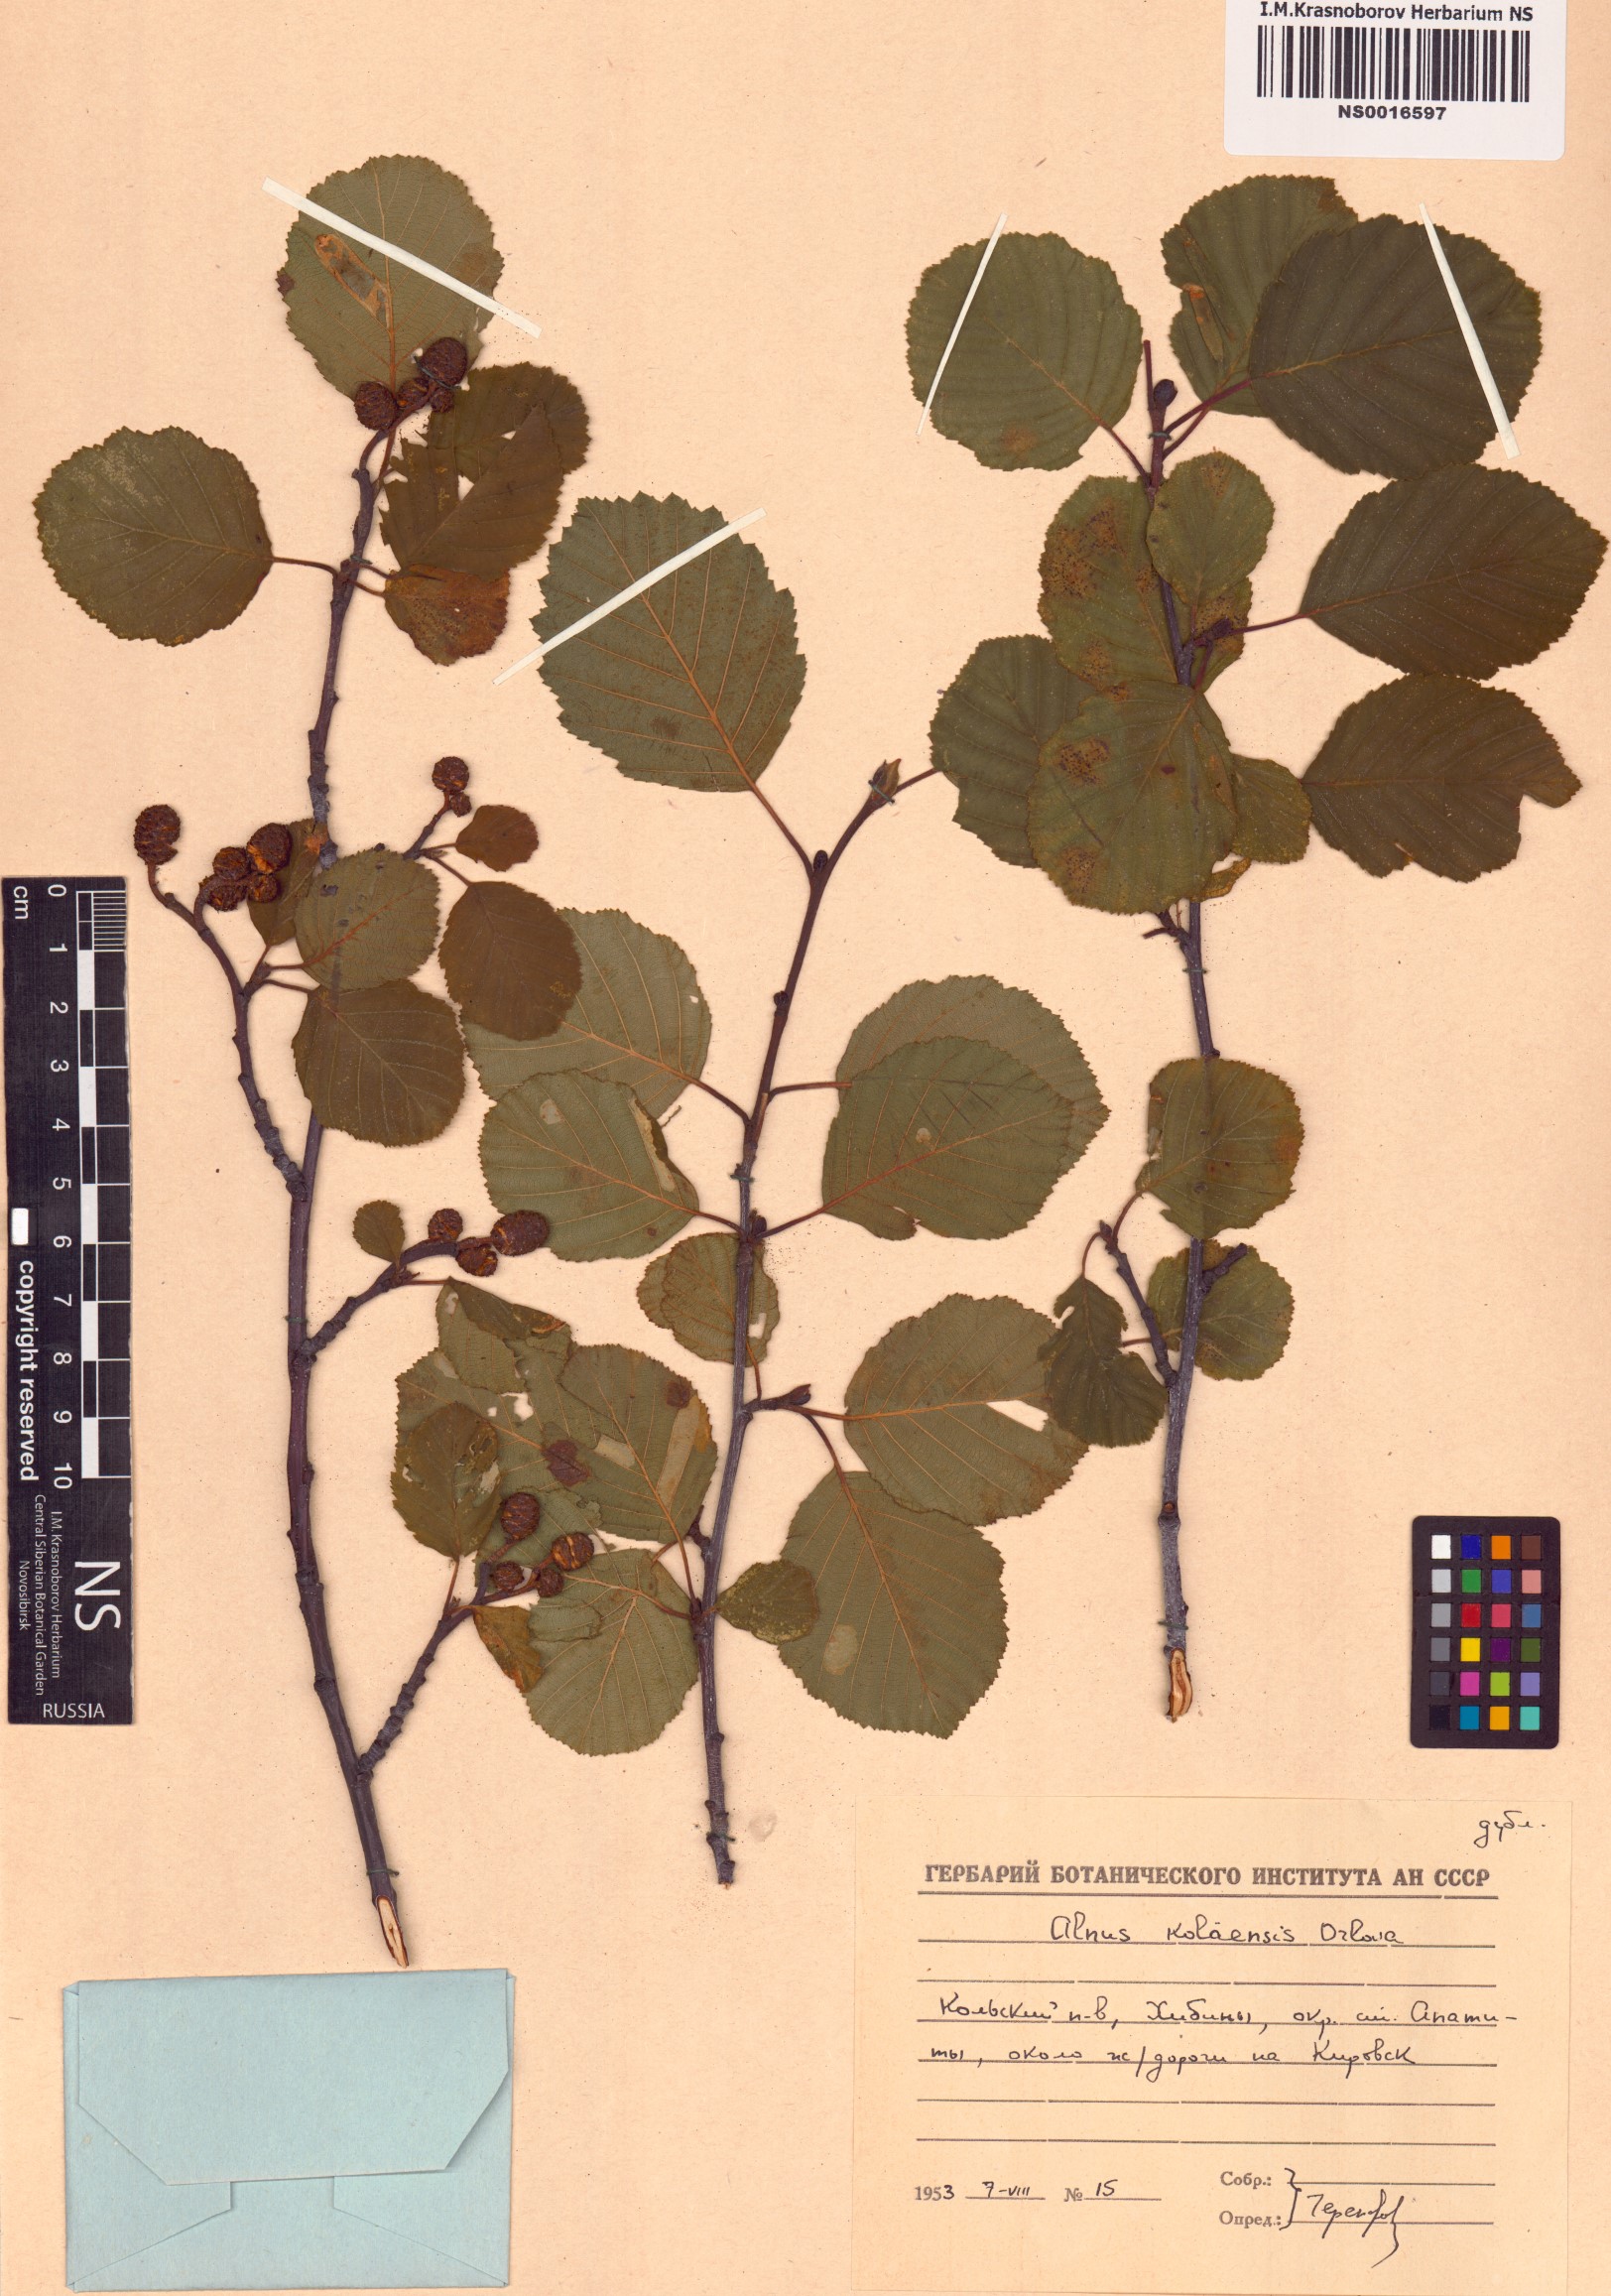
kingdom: Plantae
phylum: Tracheophyta
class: Magnoliopsida
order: Fagales
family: Betulaceae
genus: Alnus
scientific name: Alnus incana
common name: Grey alder
